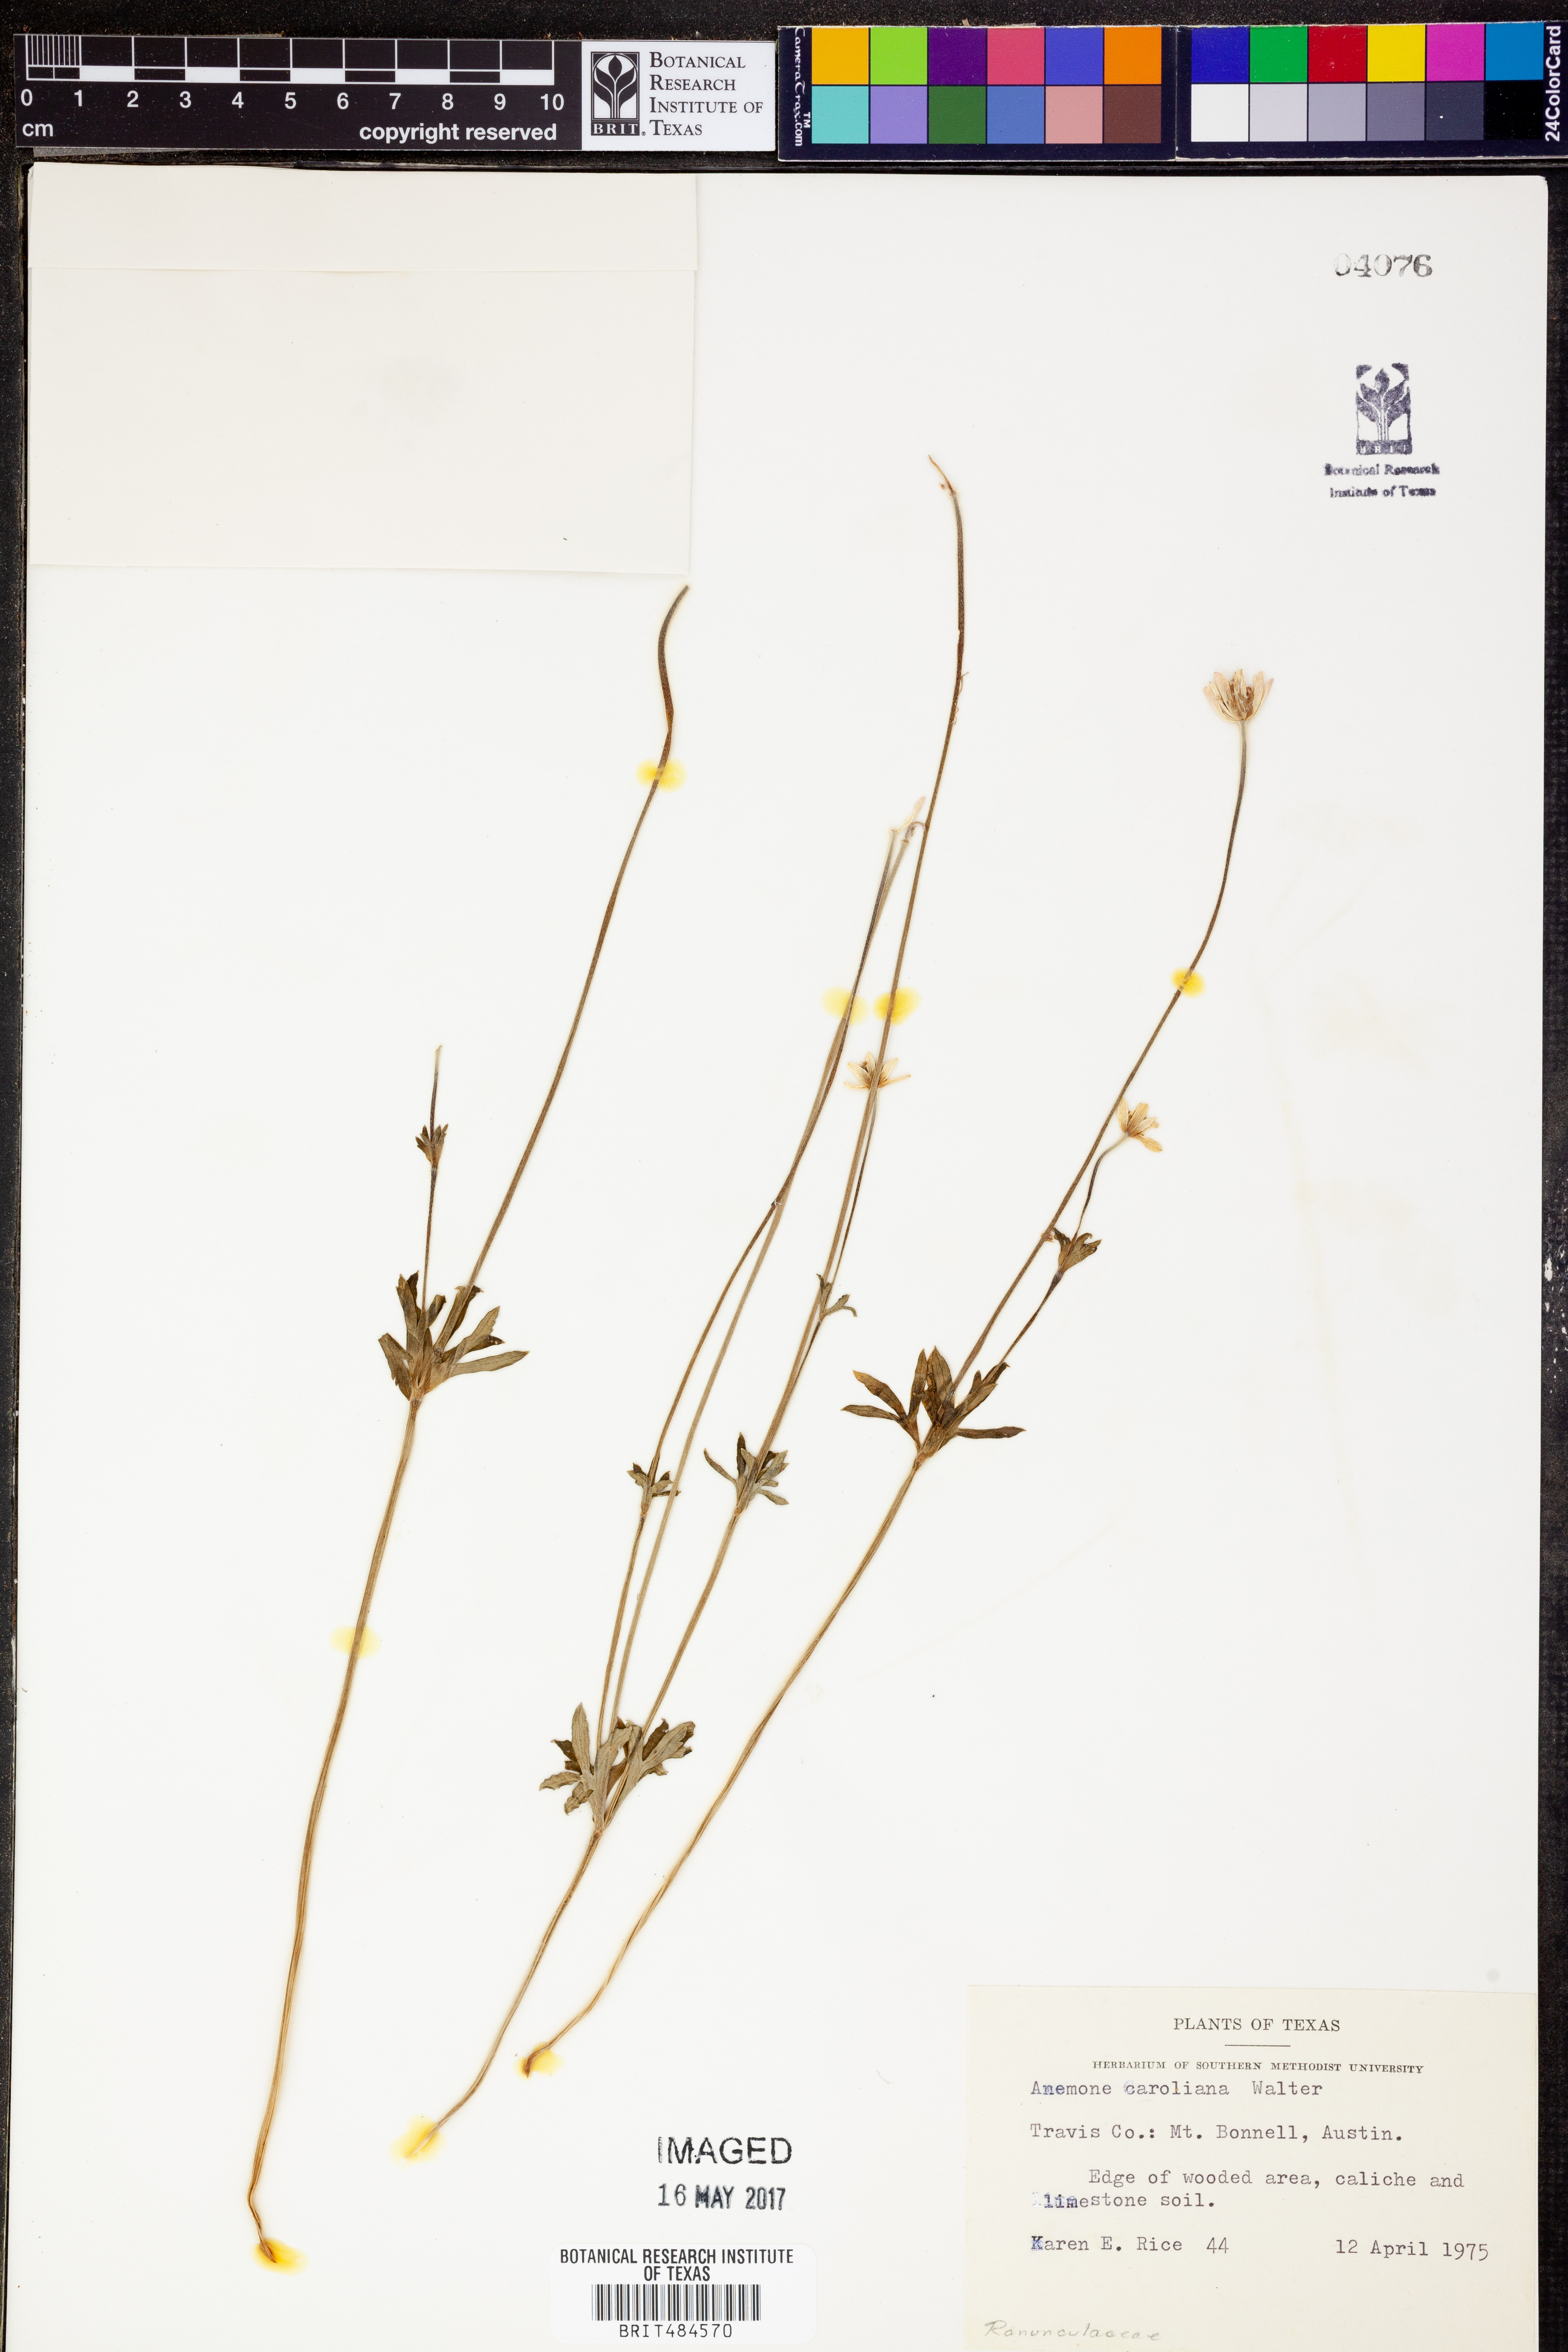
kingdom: Plantae
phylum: Tracheophyta
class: Magnoliopsida
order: Ranunculales
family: Ranunculaceae
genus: Anemone
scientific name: Anemone caroliniana
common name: Carolina anemone
